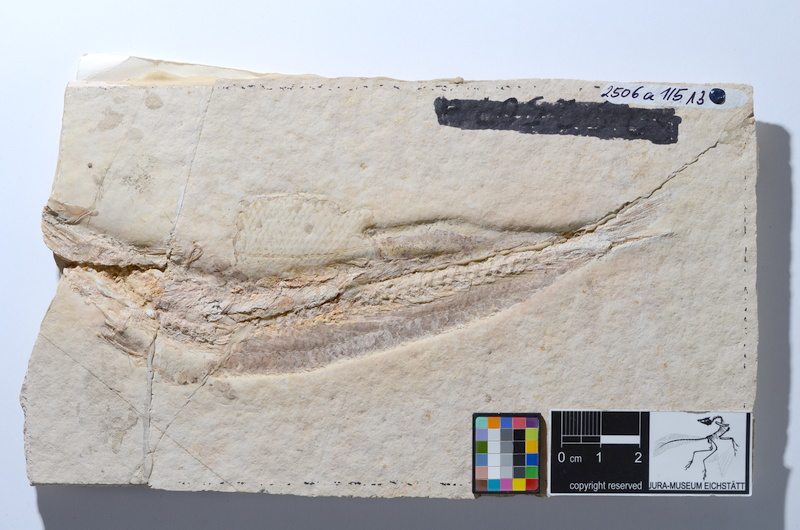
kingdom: Animalia
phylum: Chordata
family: Ascalaboidae
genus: Tharsis
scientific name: Tharsis dubius
